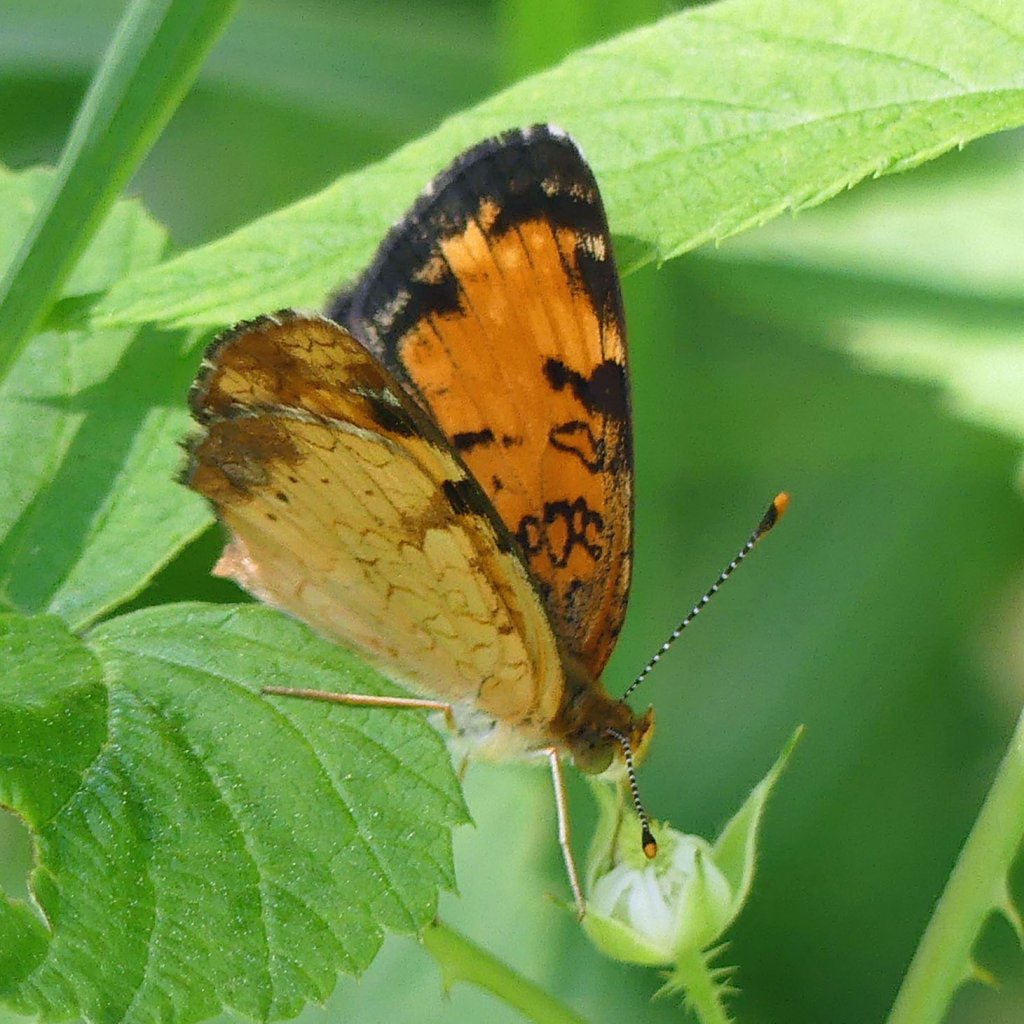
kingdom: Animalia
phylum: Arthropoda
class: Insecta
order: Lepidoptera
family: Nymphalidae
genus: Phyciodes
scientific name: Phyciodes tharos
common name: Northern Crescent
